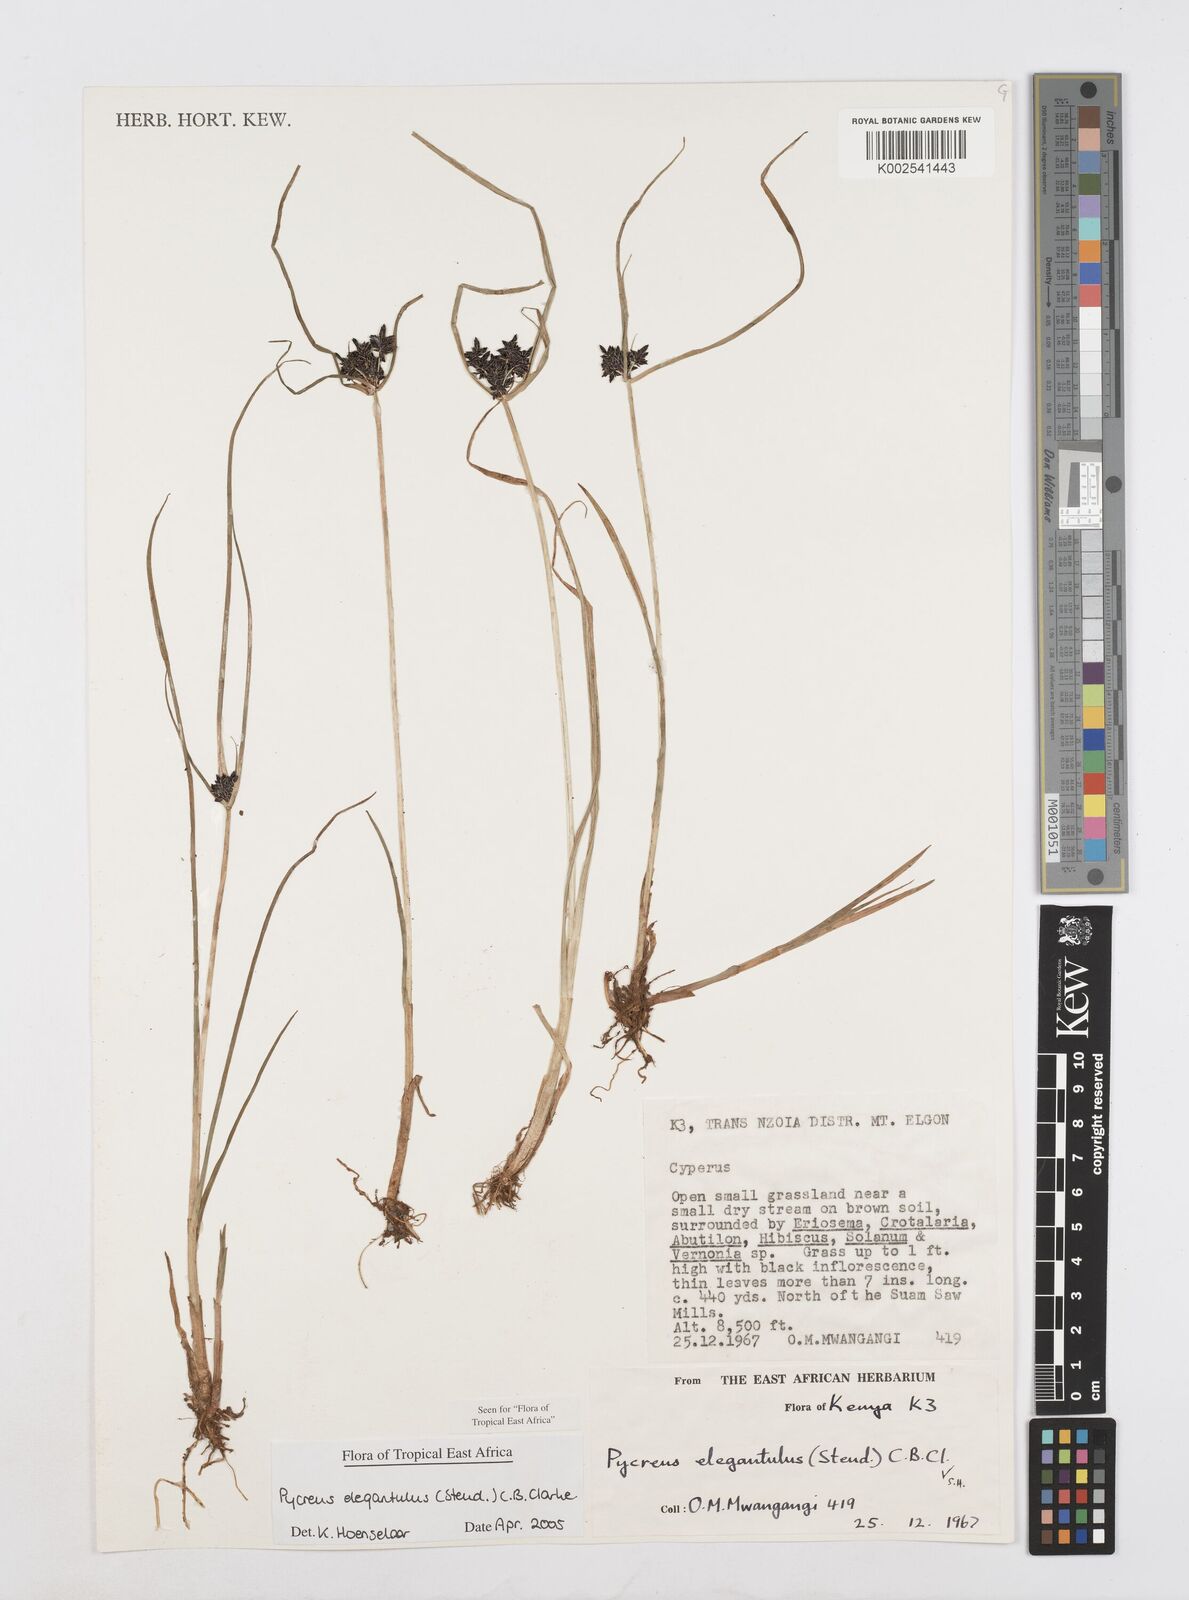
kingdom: Plantae
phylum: Tracheophyta
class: Liliopsida
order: Poales
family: Cyperaceae
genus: Cyperus
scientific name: Cyperus elegantulus
